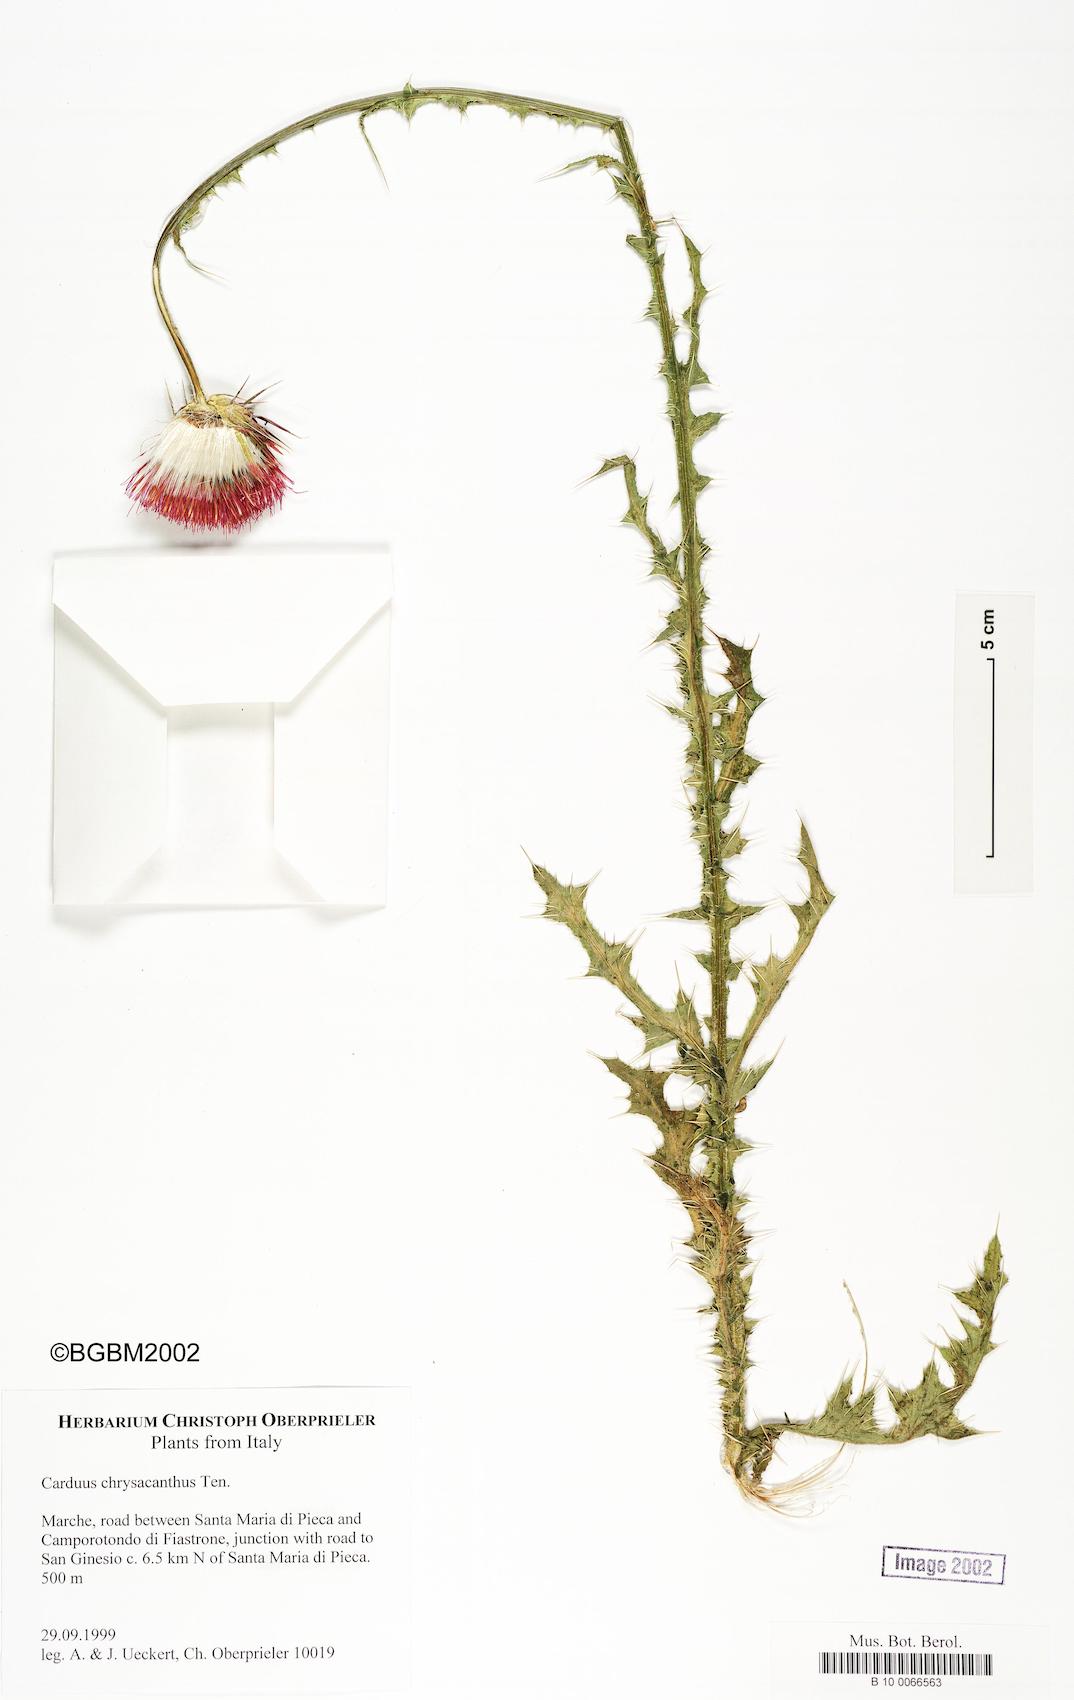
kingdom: Plantae
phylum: Tracheophyta
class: Magnoliopsida
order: Asterales
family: Asteraceae
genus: Carduus
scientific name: Carduus chrysacanthus
